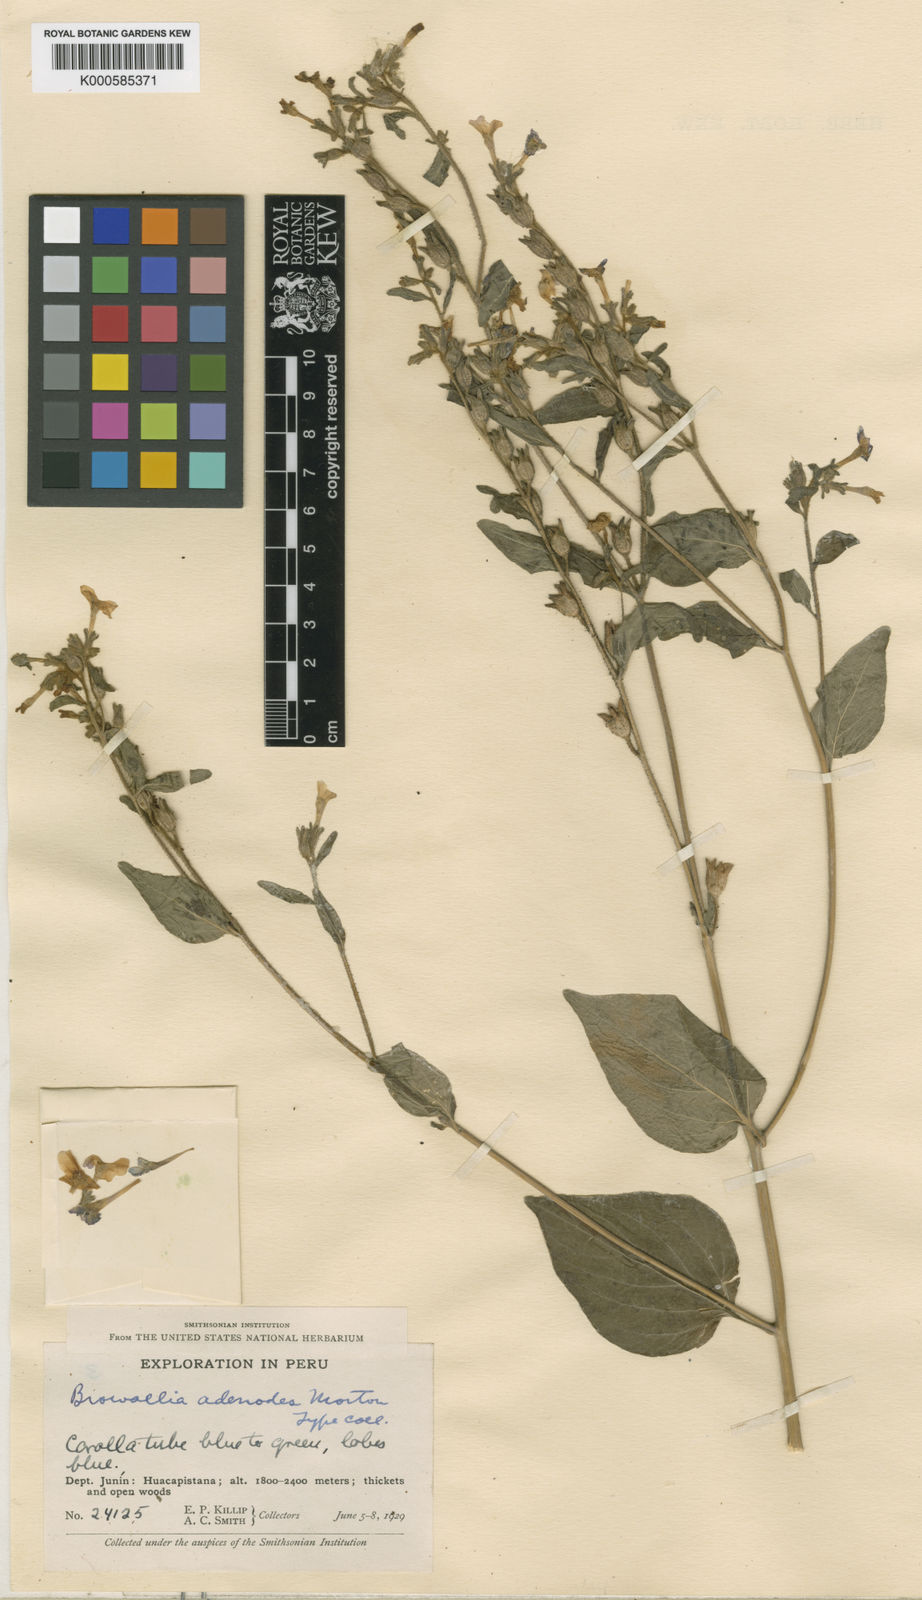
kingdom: Plantae
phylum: Tracheophyta
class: Magnoliopsida
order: Solanales
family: Solanaceae
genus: Browallia
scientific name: Browallia
